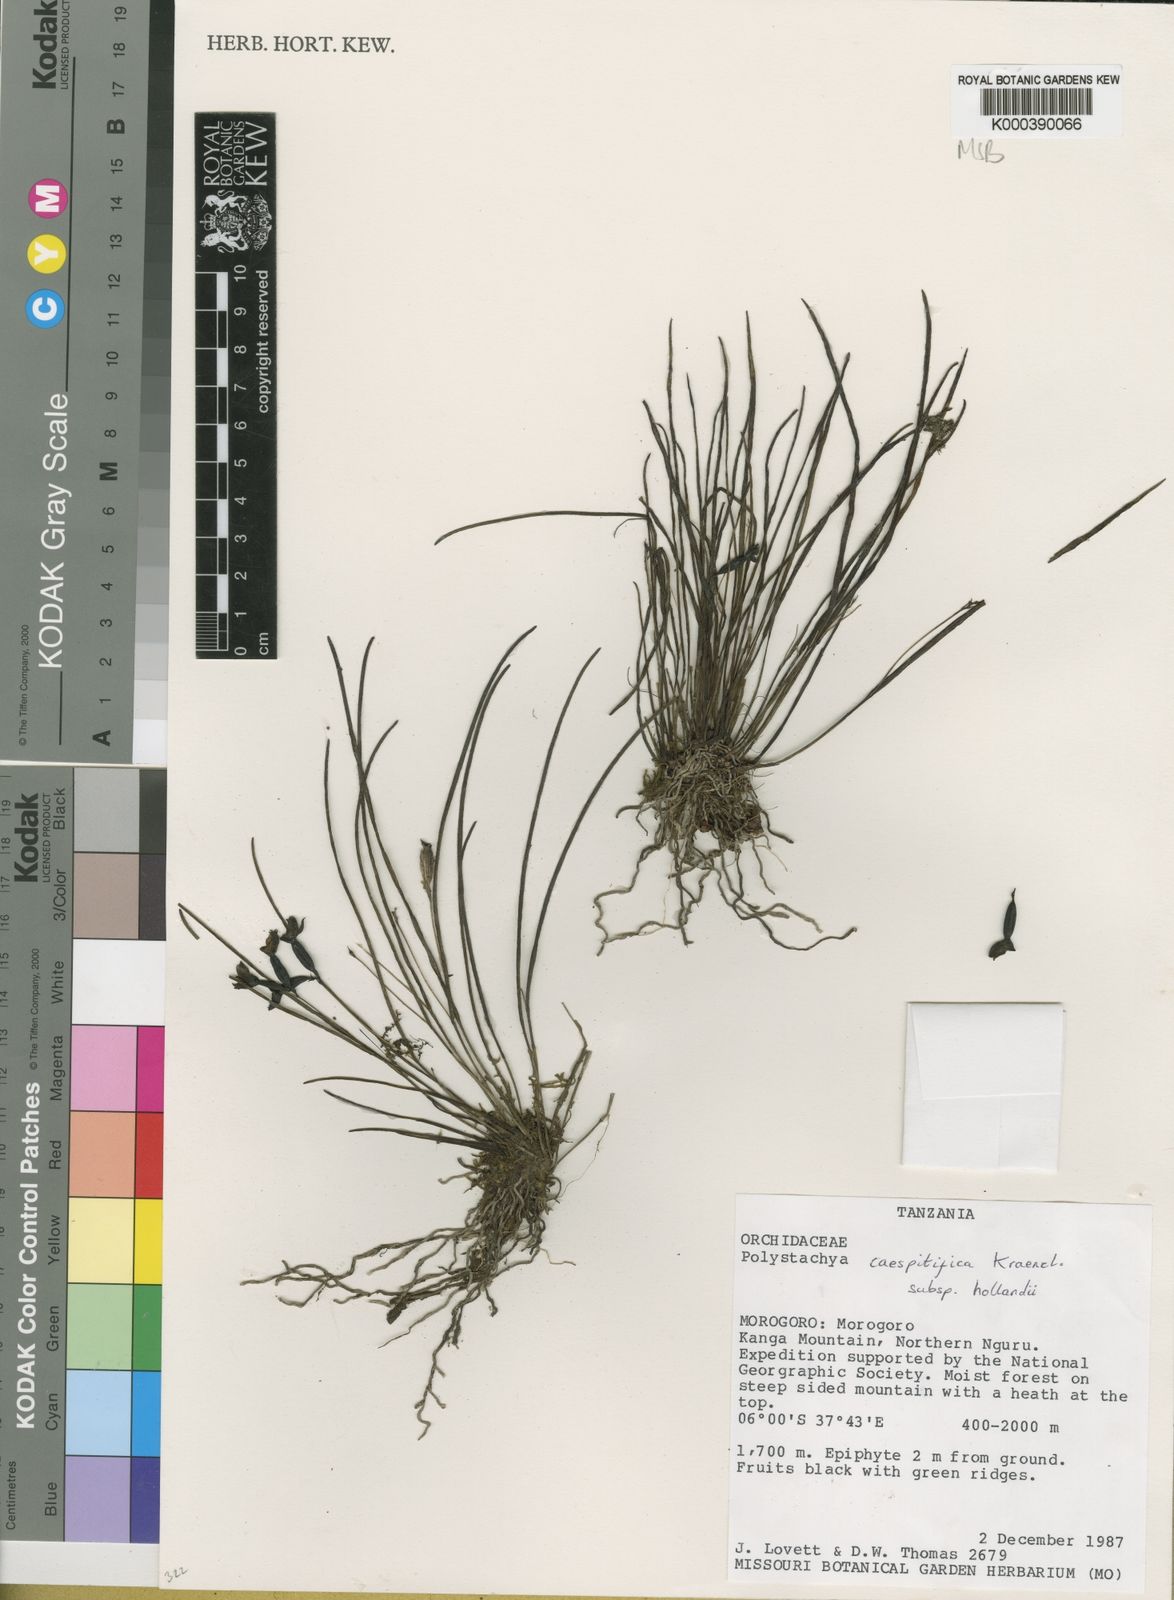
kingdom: Plantae
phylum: Tracheophyta
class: Liliopsida
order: Asparagales
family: Orchidaceae
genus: Polystachya
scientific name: Polystachya caespitifica
